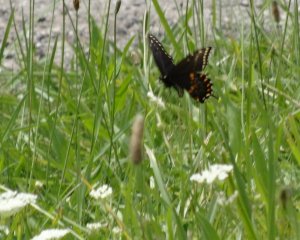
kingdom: Animalia
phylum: Arthropoda
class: Insecta
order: Lepidoptera
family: Papilionidae
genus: Papilio
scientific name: Papilio polyxenes
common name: Black Swallowtail
